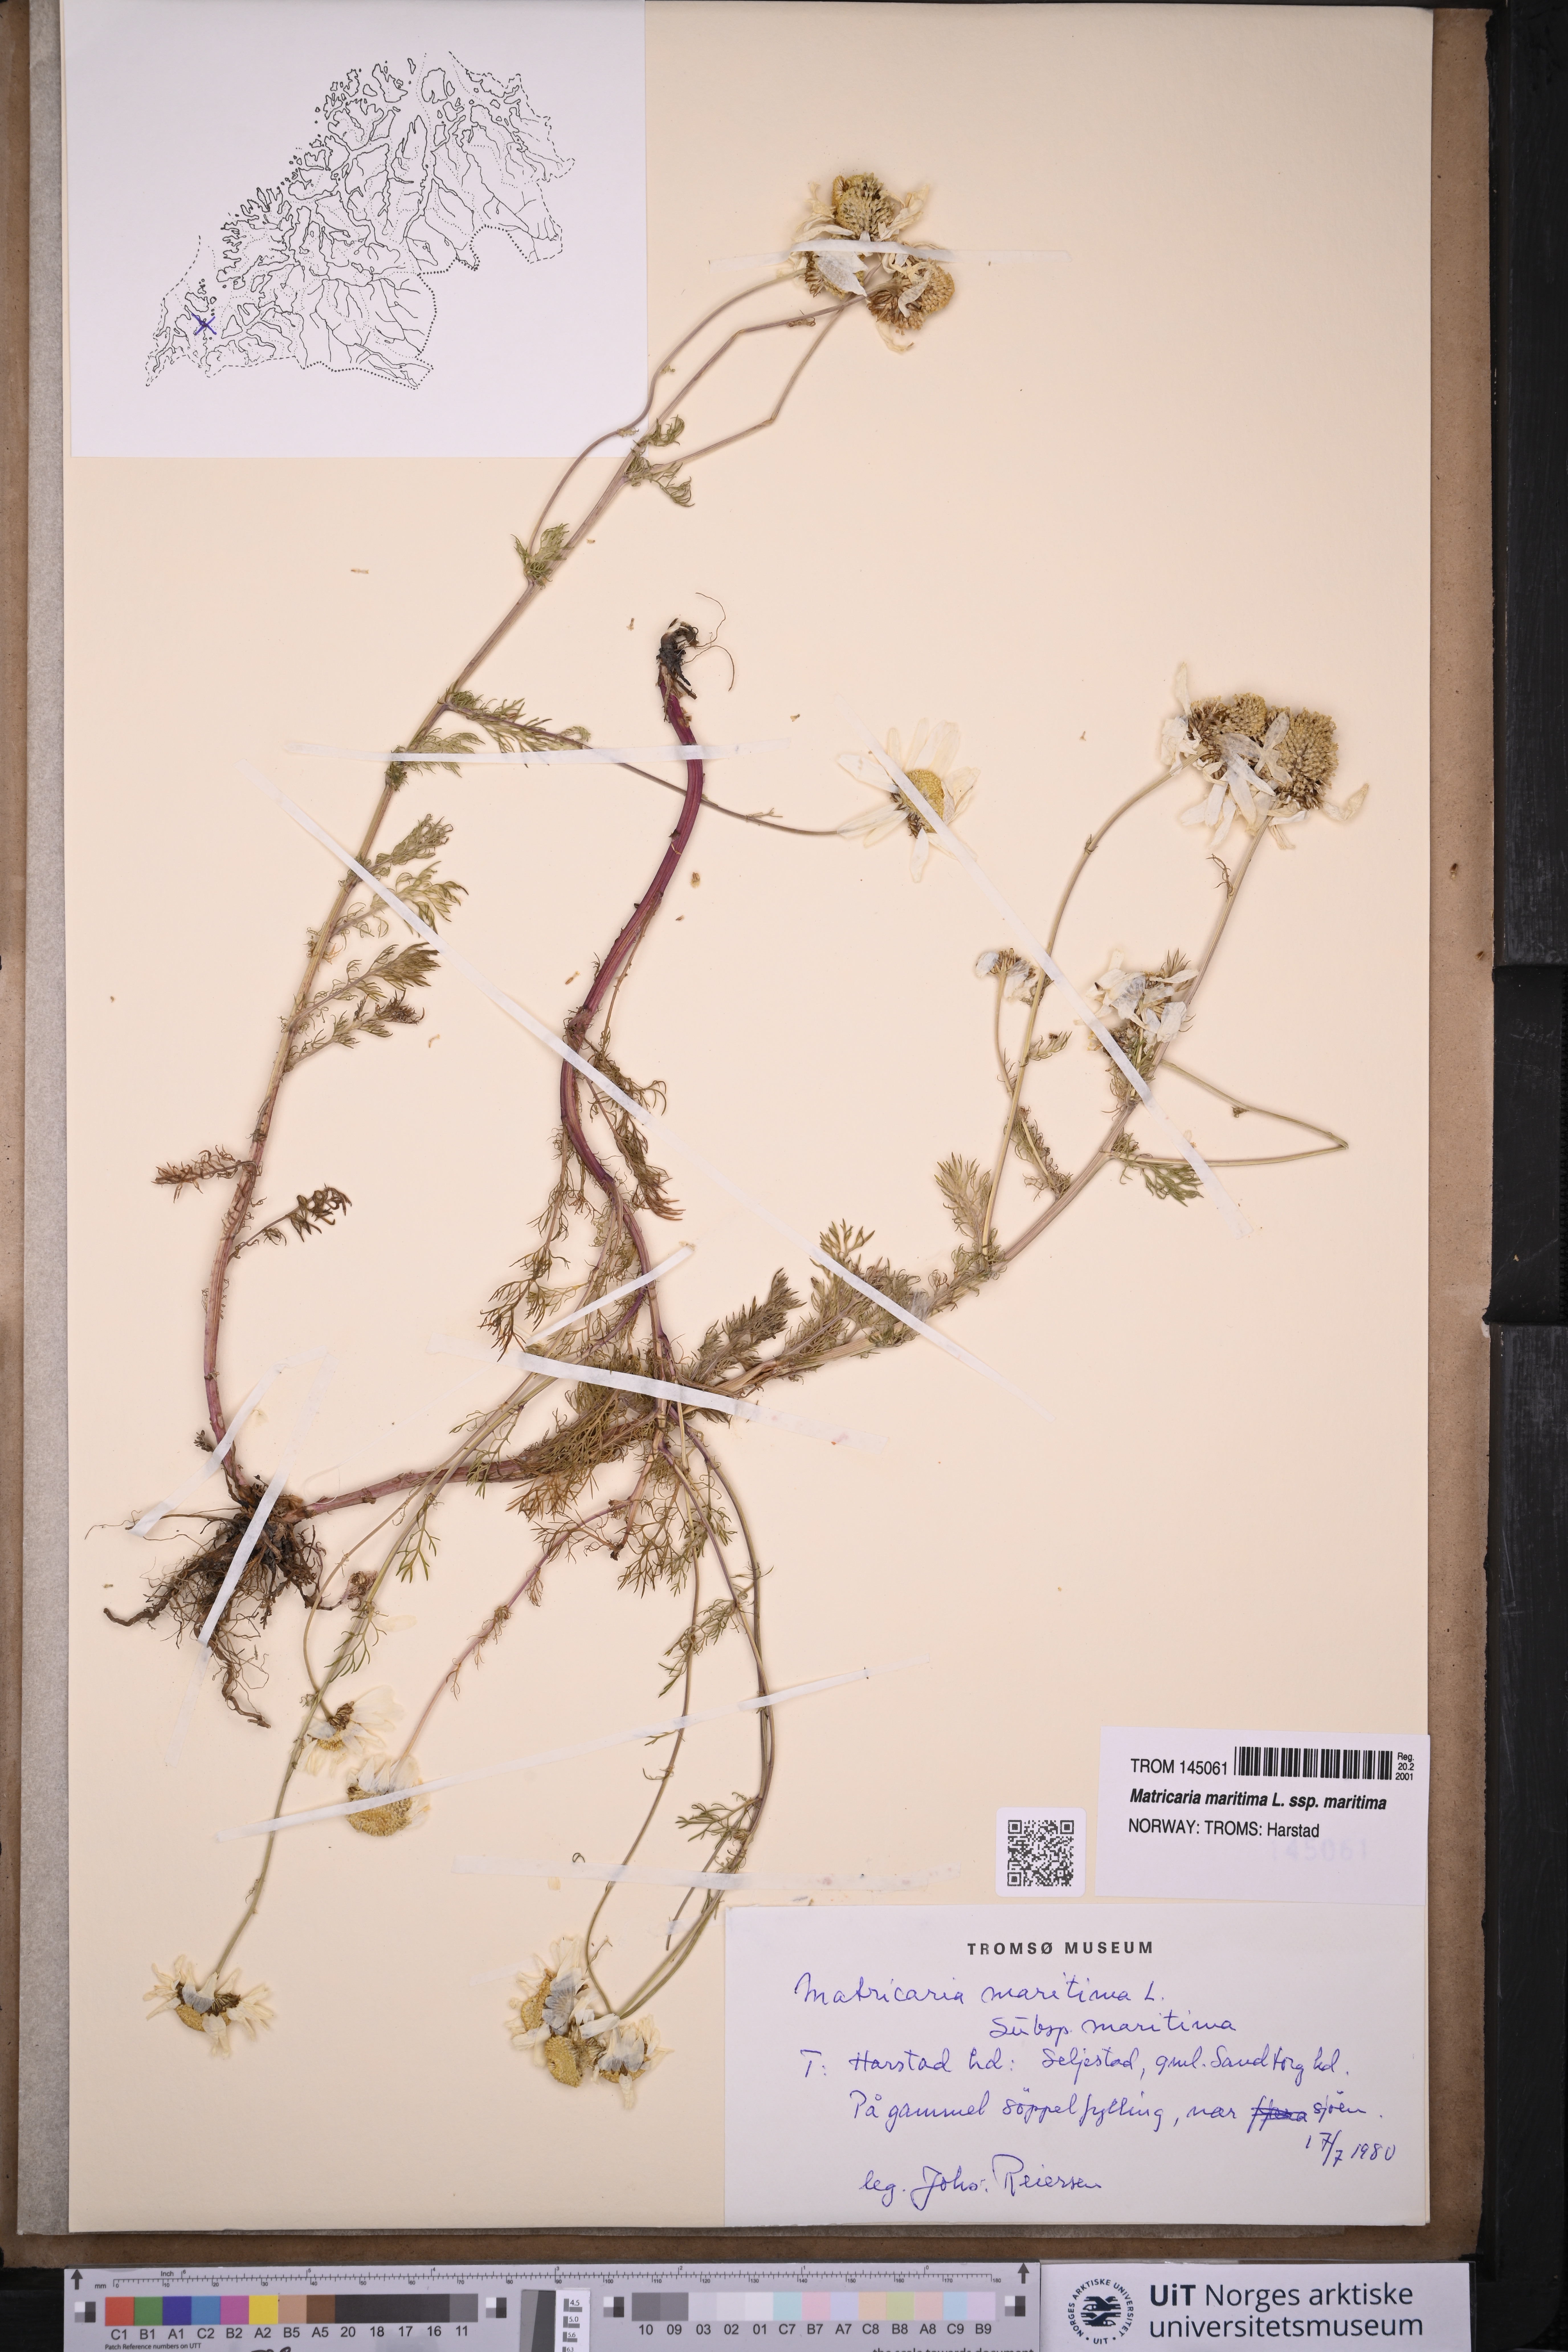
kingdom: Plantae
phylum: Tracheophyta
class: Magnoliopsida
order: Asterales
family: Asteraceae
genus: Tripleurospermum
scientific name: Tripleurospermum maritimum
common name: Sea mayweed
